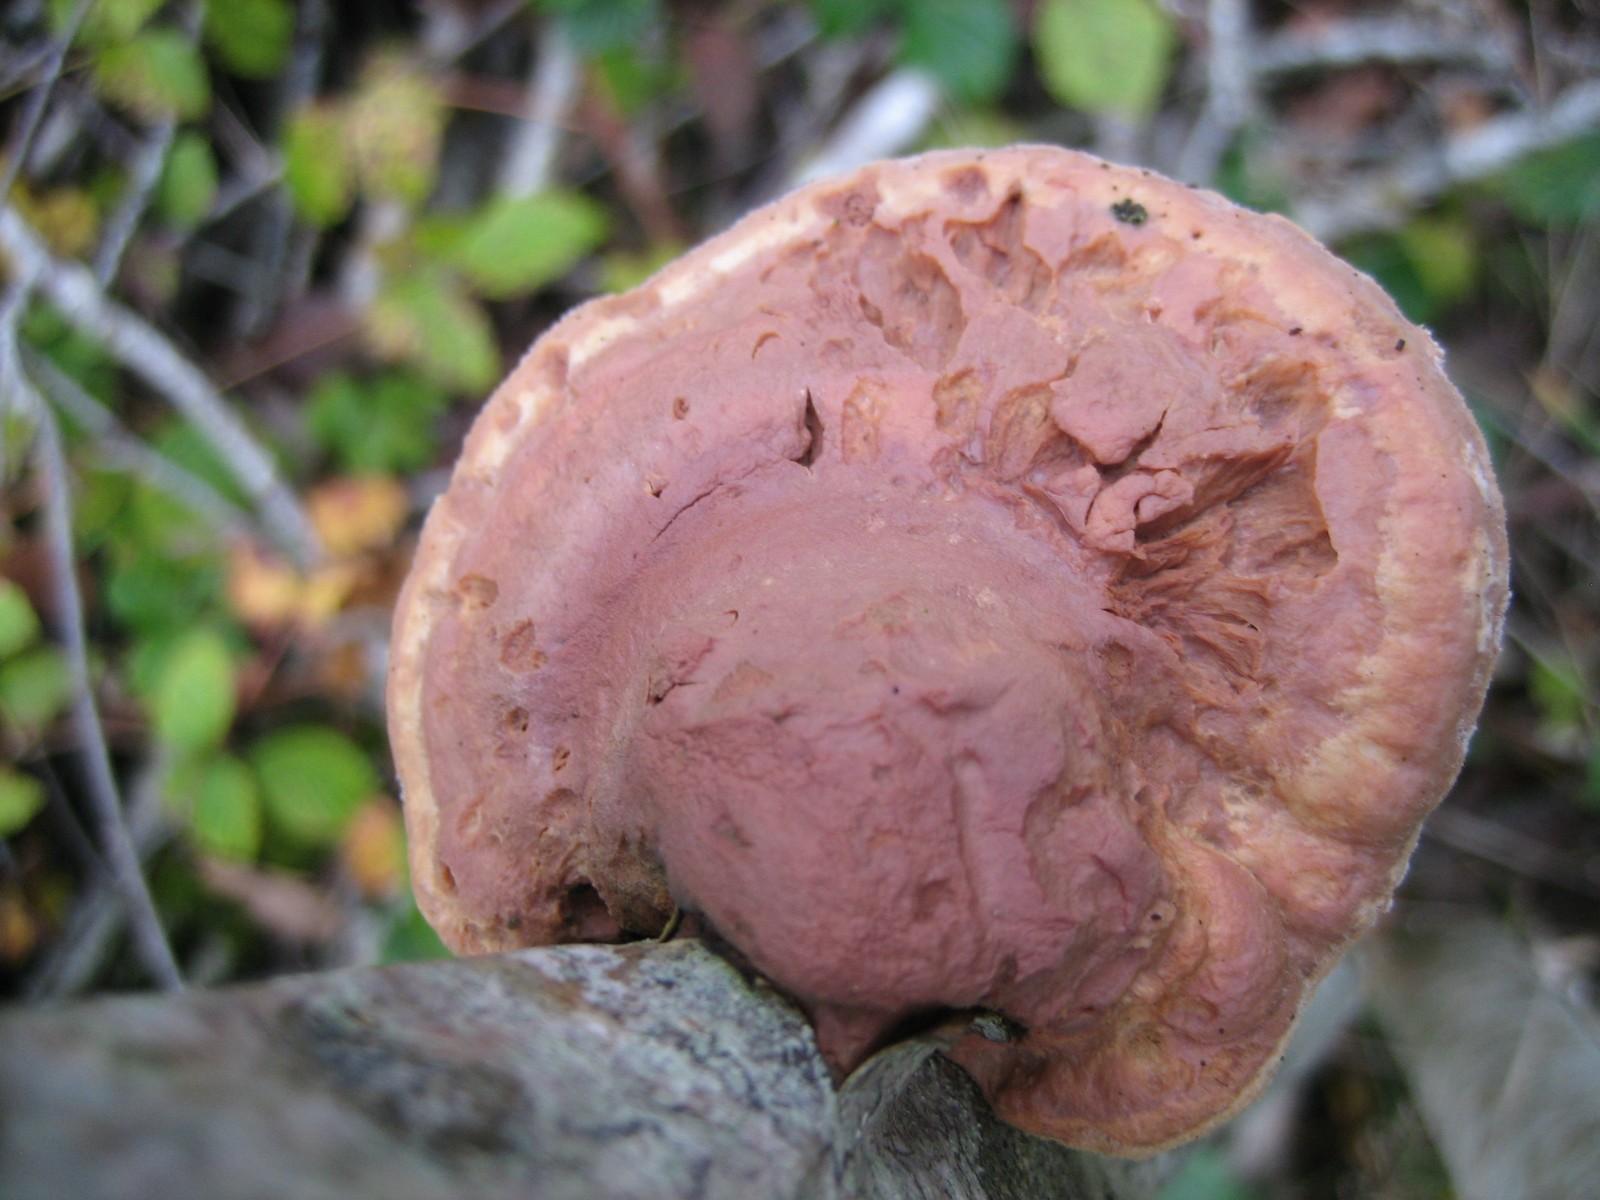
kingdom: Fungi
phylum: Basidiomycota
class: Agaricomycetes
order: Polyporales
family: Phanerochaetaceae
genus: Hapalopilus
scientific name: Hapalopilus rutilans
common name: rødlig okkerporesvamp
